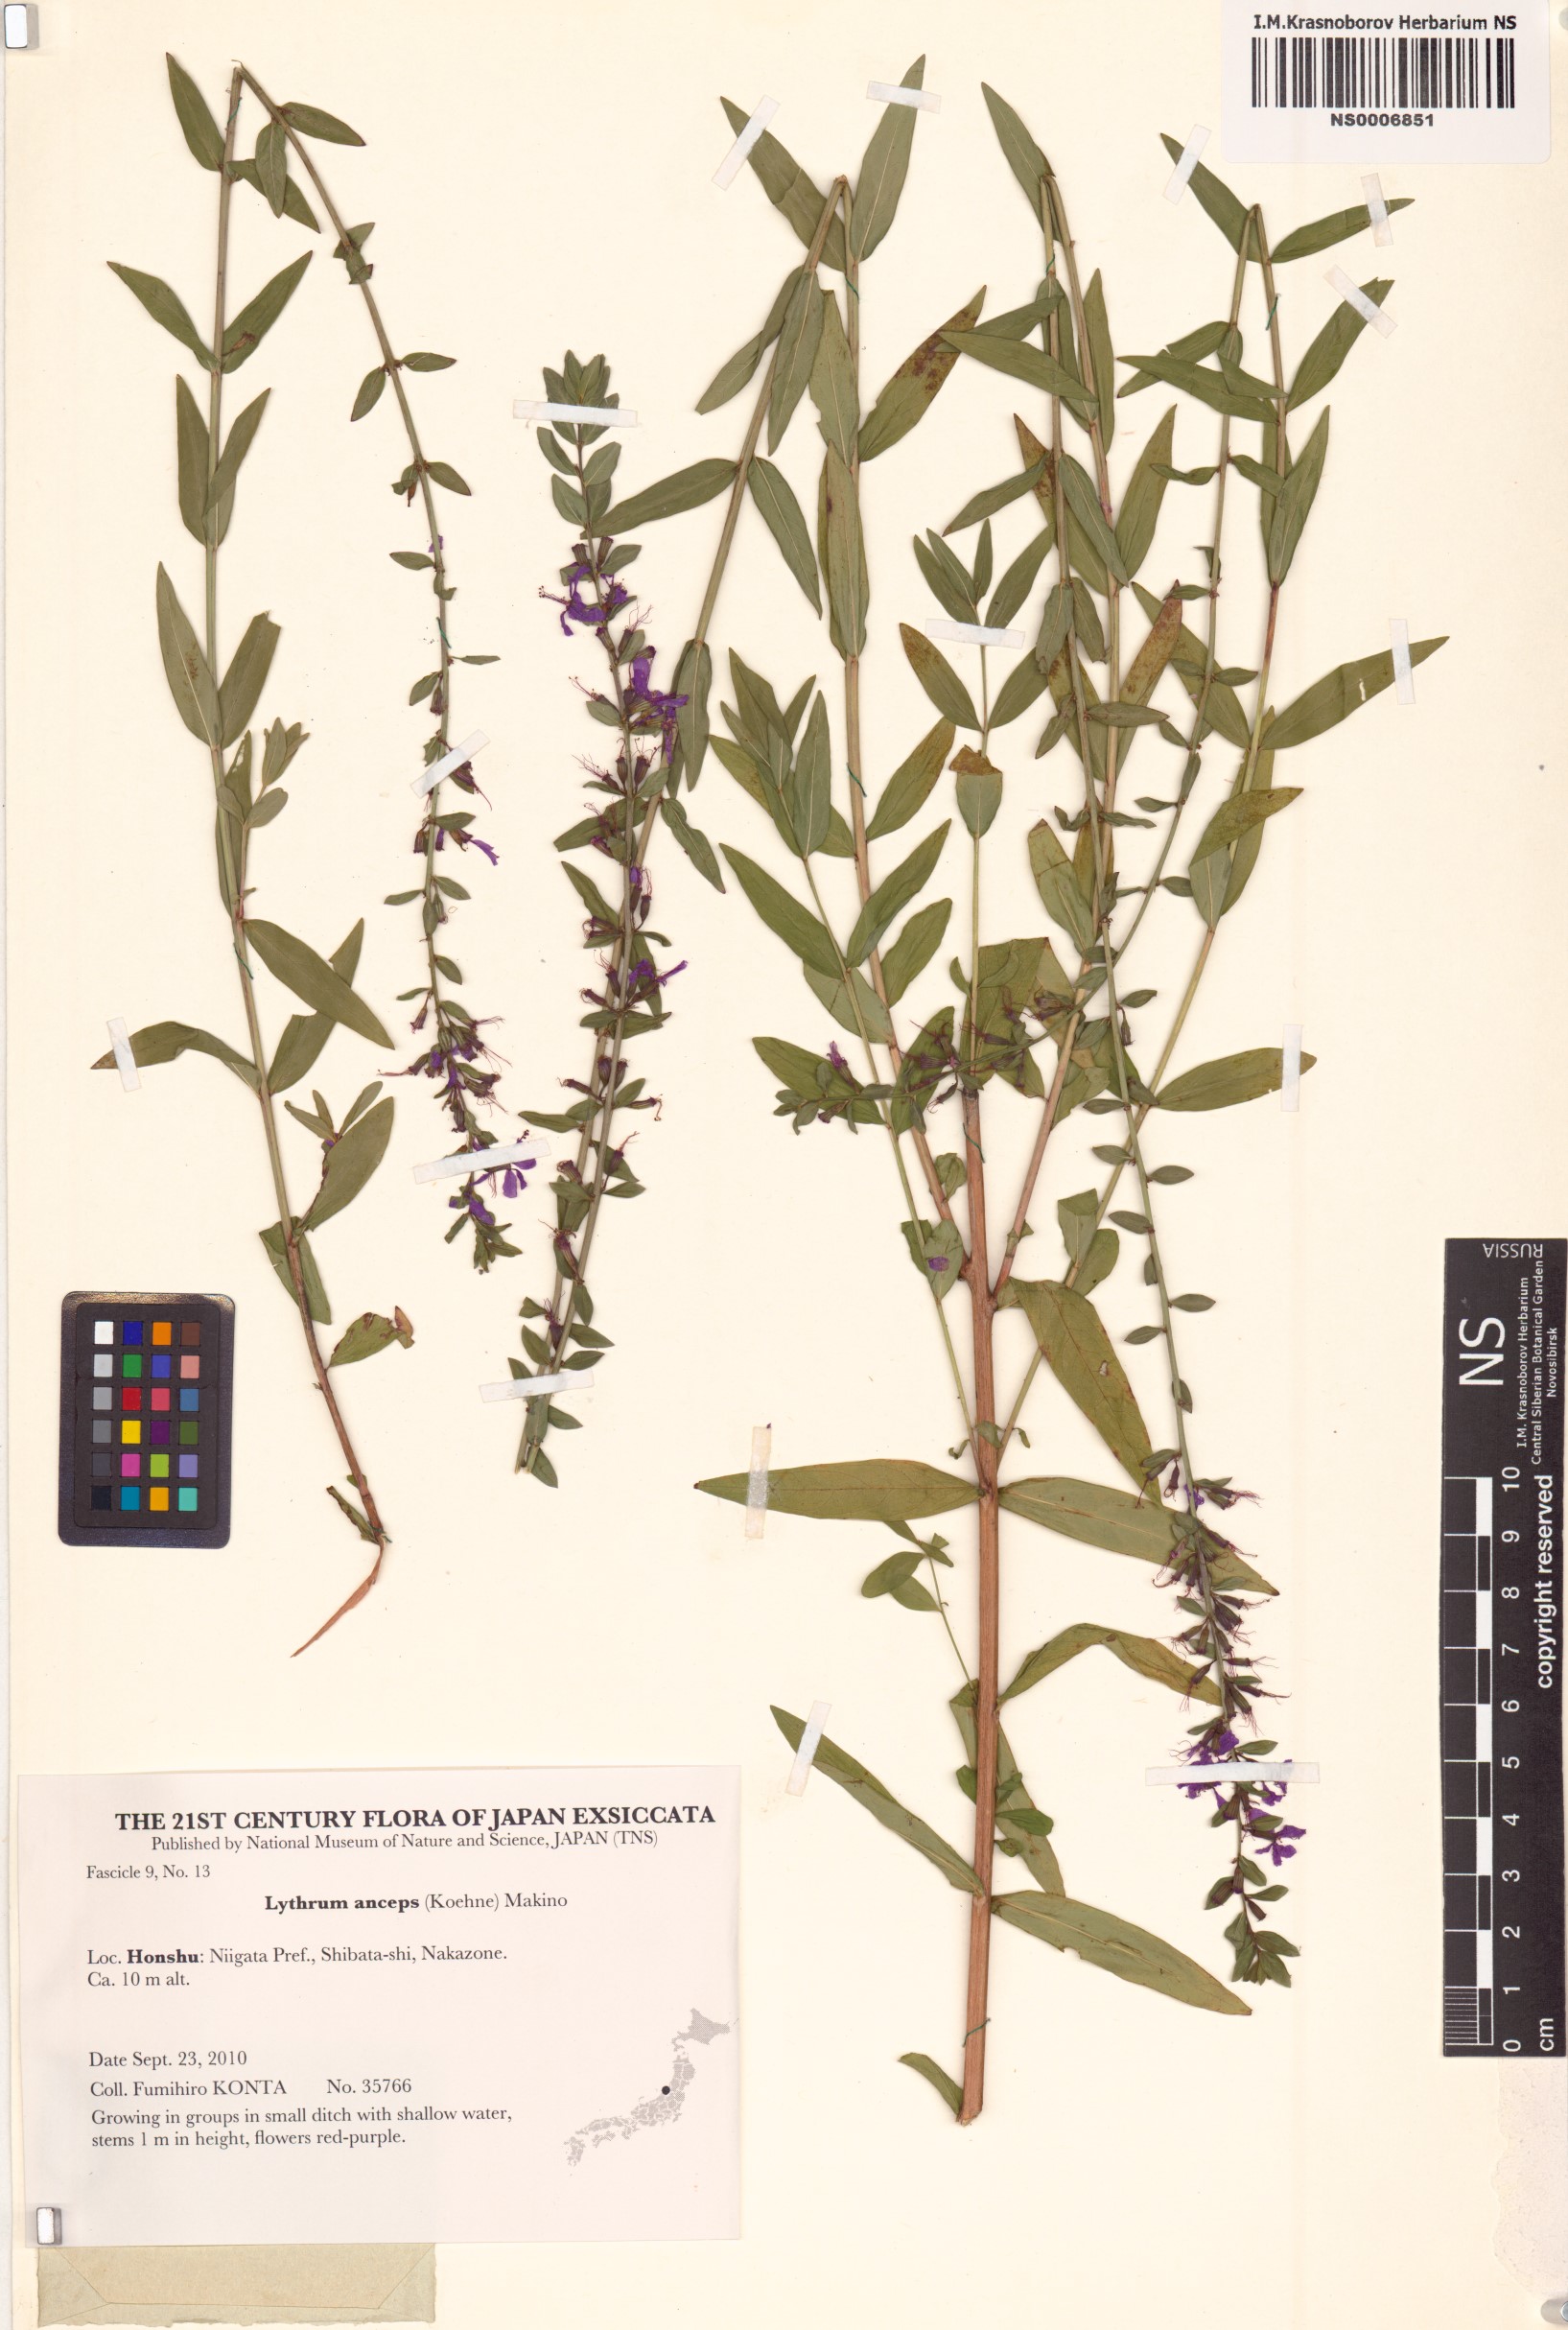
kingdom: Plantae
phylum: Tracheophyta
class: Magnoliopsida
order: Myrtales
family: Lythraceae
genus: Lythrum
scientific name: Lythrum salicaria
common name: Purple loosestrife
